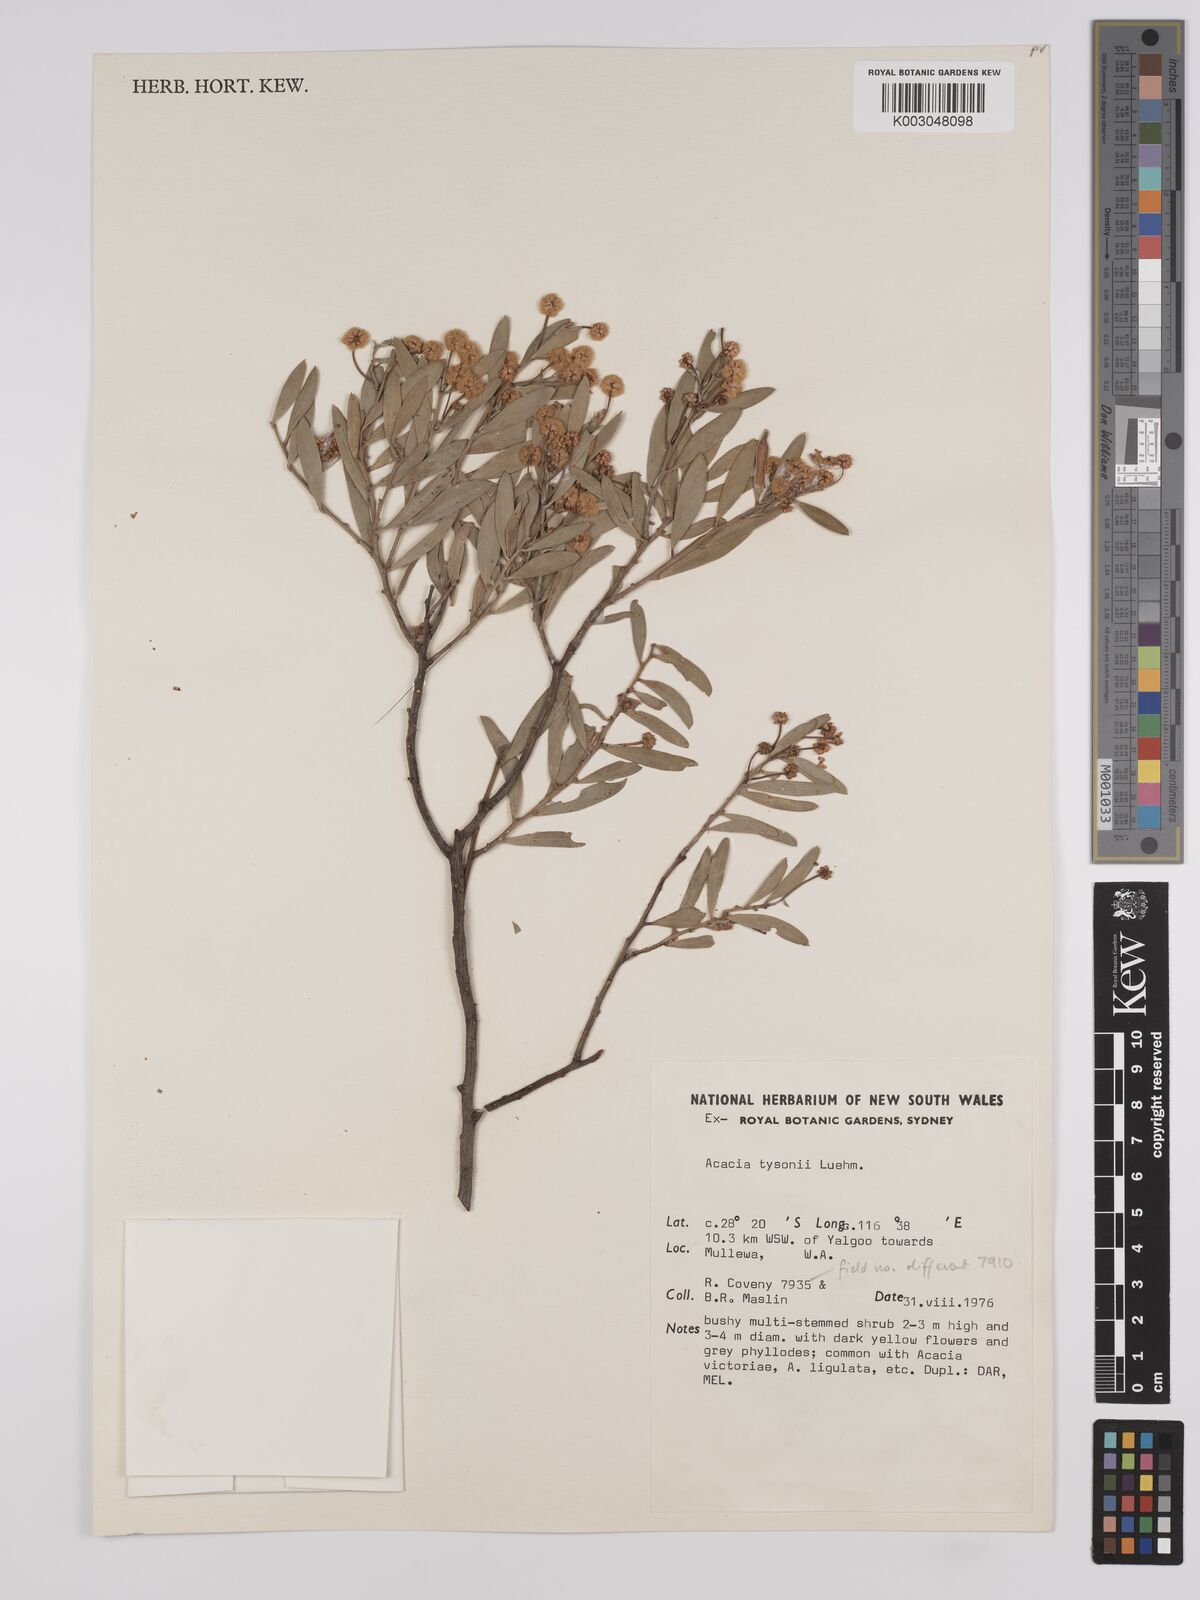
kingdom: Plantae
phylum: Tracheophyta
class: Magnoliopsida
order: Fabales
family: Fabaceae
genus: Acacia
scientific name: Acacia tysonii
